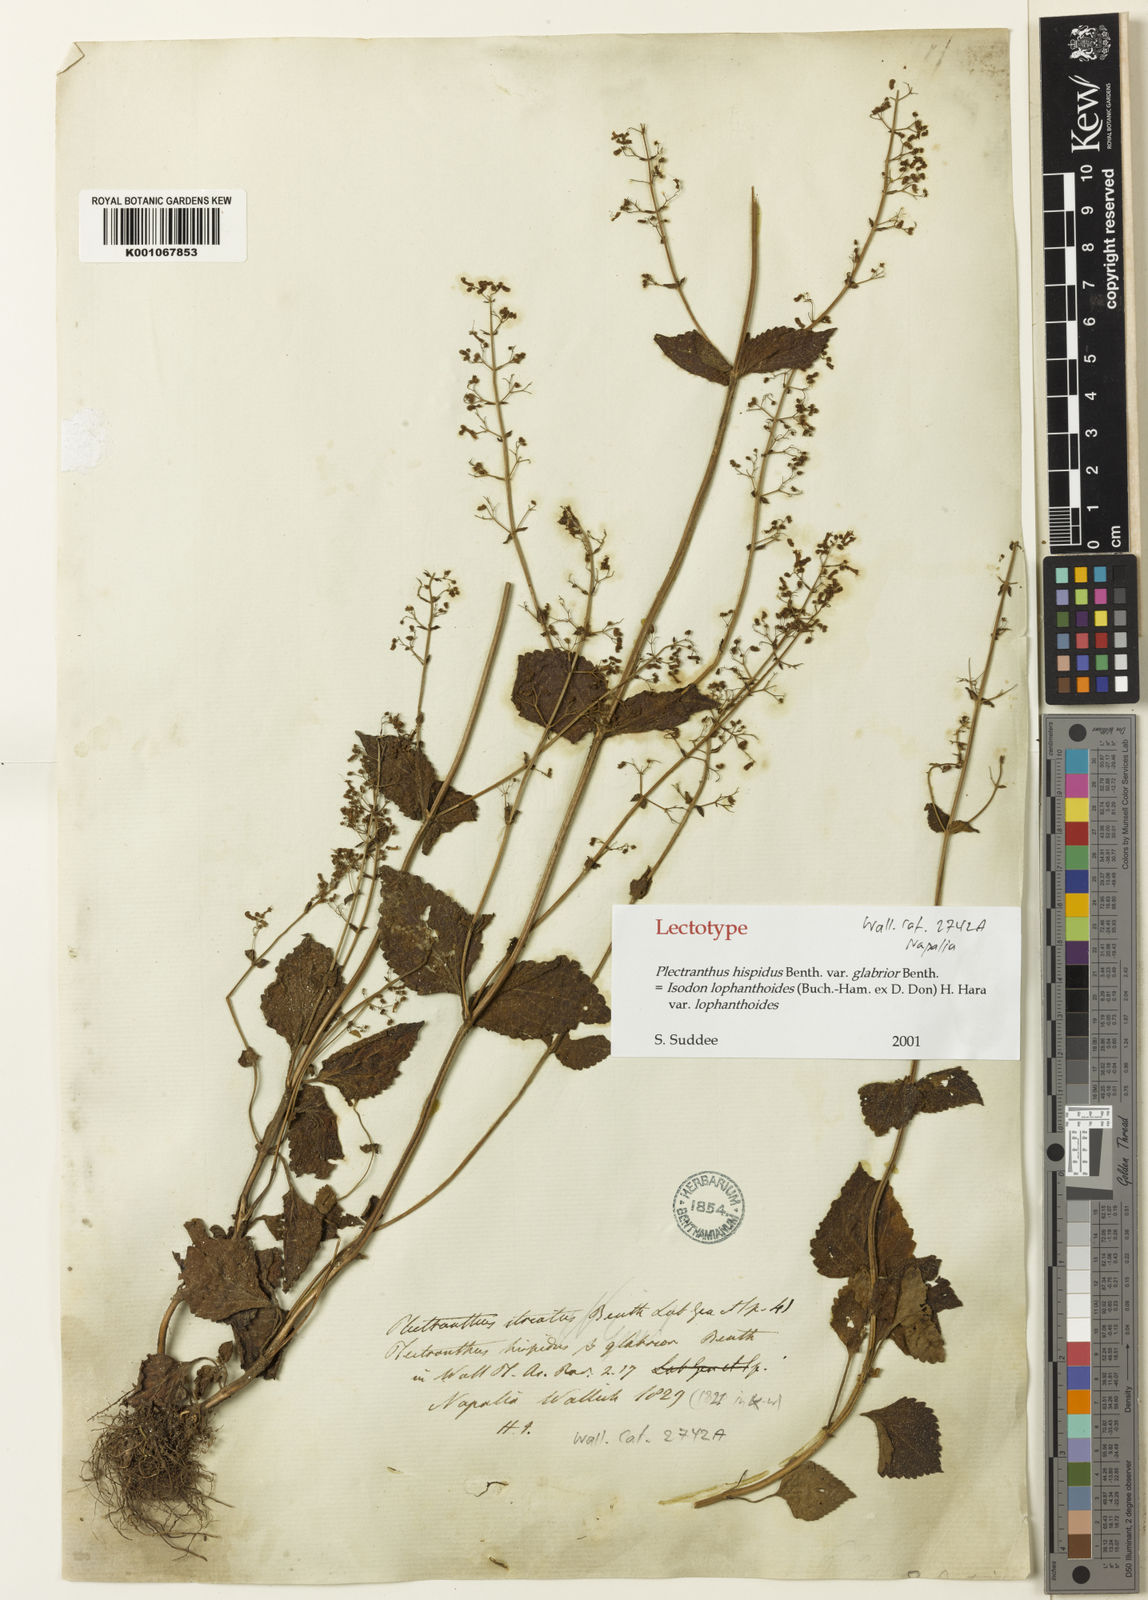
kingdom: Plantae
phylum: Tracheophyta
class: Magnoliopsida
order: Lamiales
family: Lamiaceae
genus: Isodon
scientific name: Isodon lophanthoides
